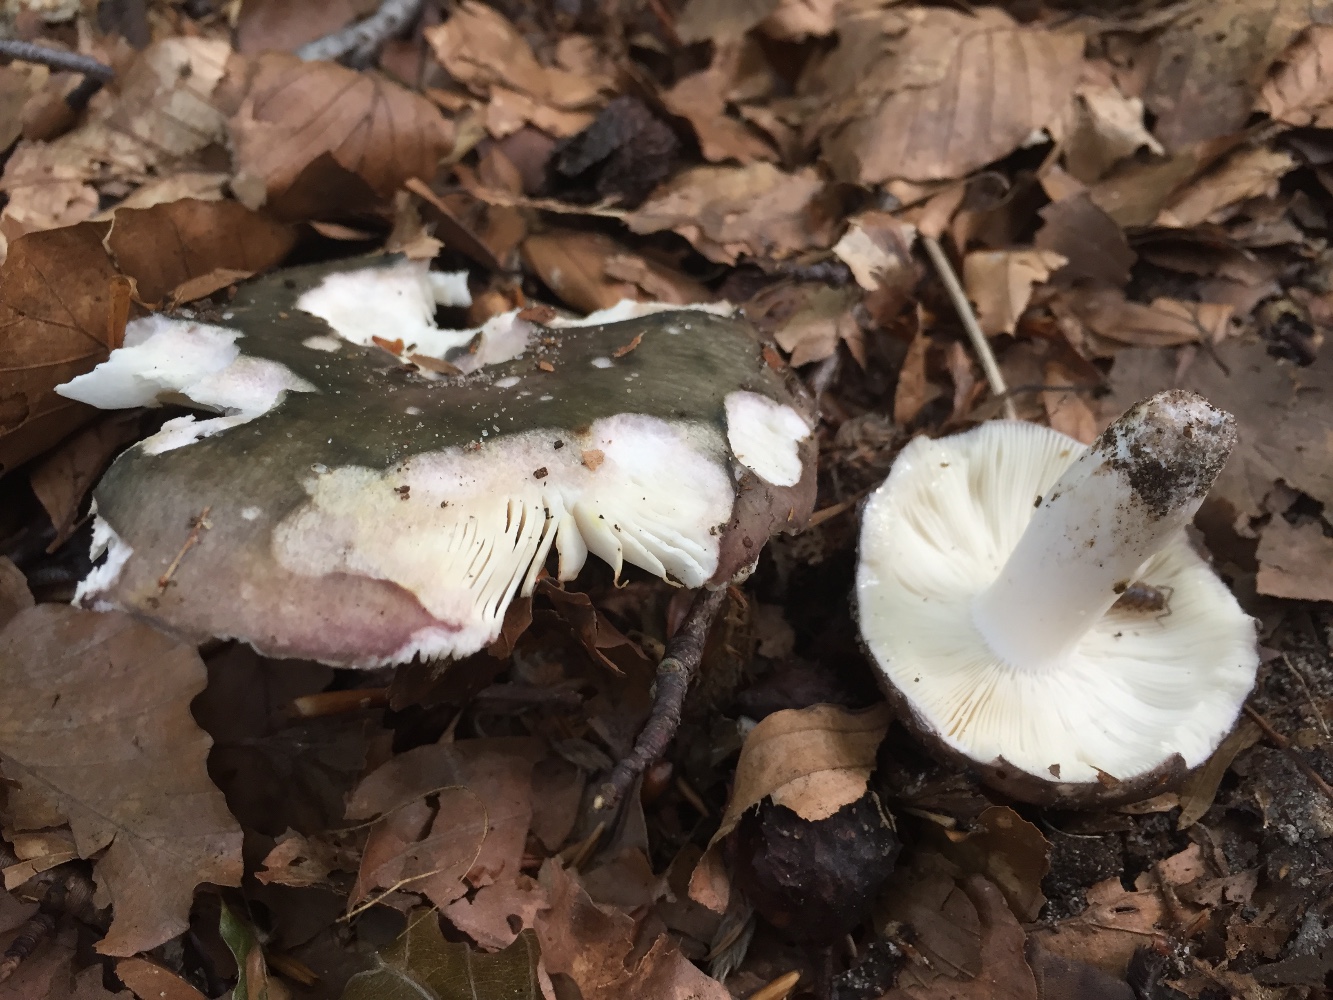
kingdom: Fungi
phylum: Basidiomycota
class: Agaricomycetes
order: Russulales
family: Russulaceae
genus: Russula
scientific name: Russula cyanoxantha
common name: broget skørhat
